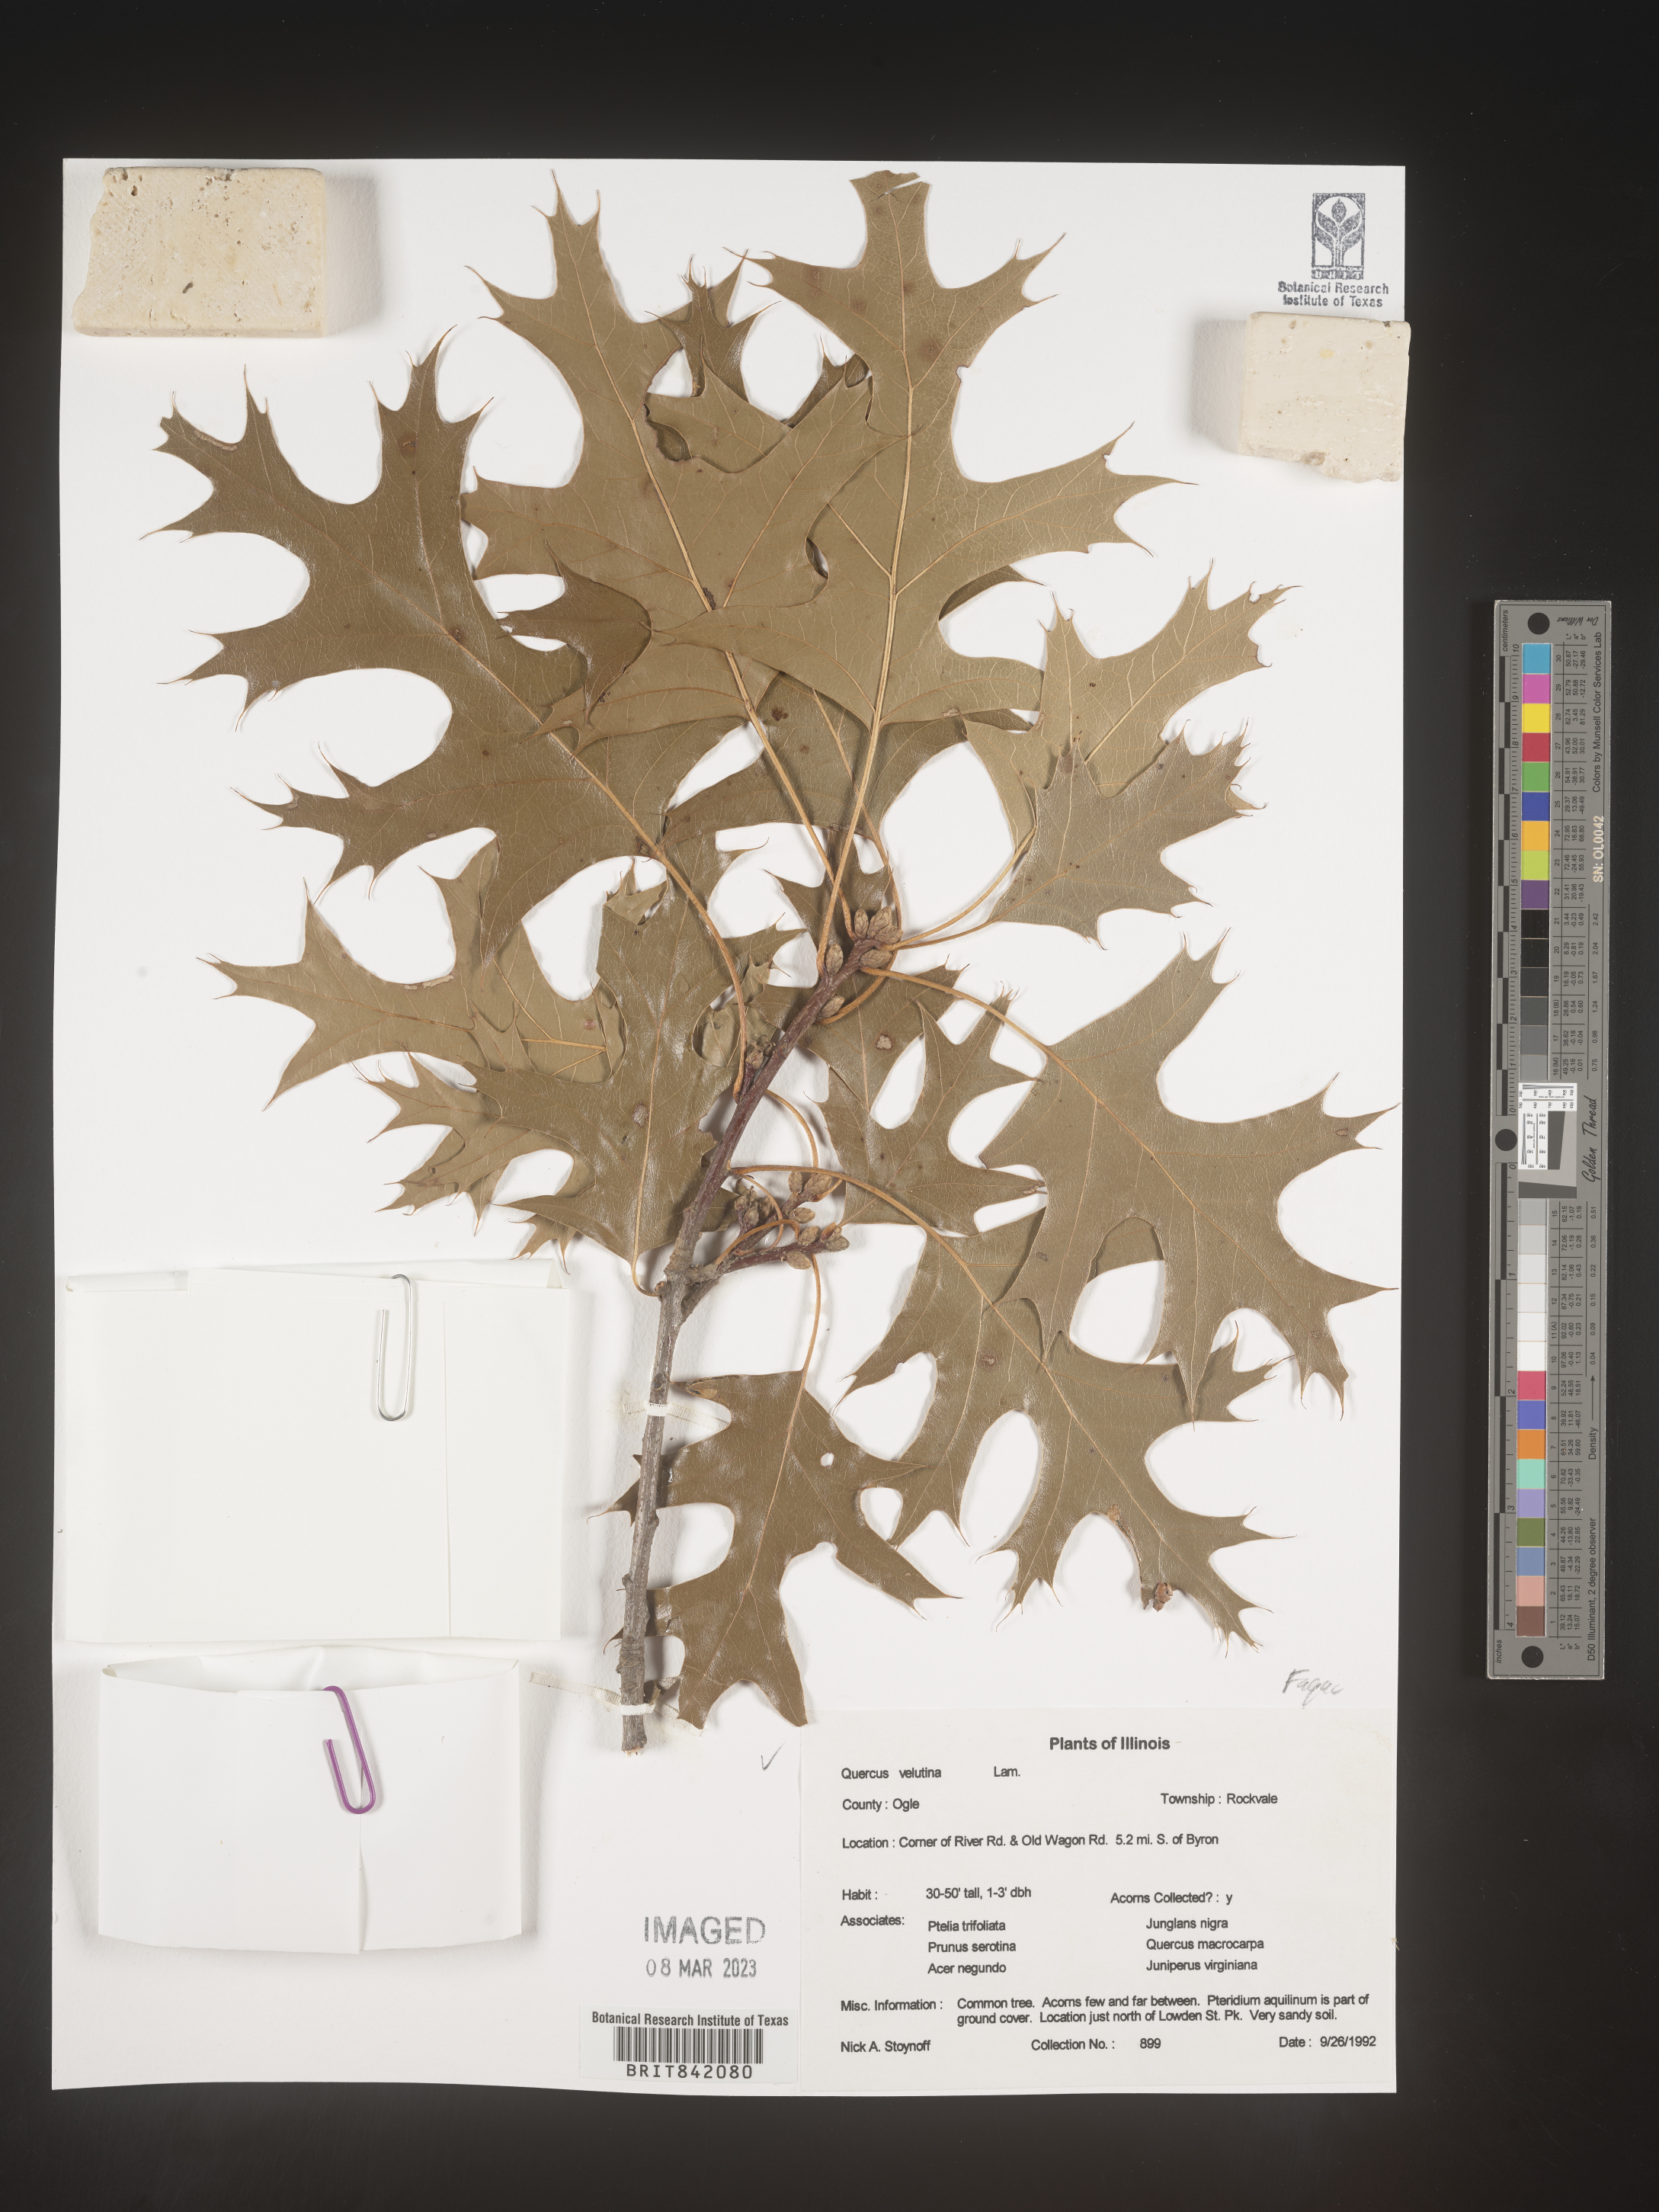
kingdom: Plantae
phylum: Tracheophyta
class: Magnoliopsida
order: Fagales
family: Fagaceae
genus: Quercus
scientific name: Quercus velutina
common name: Black oak
